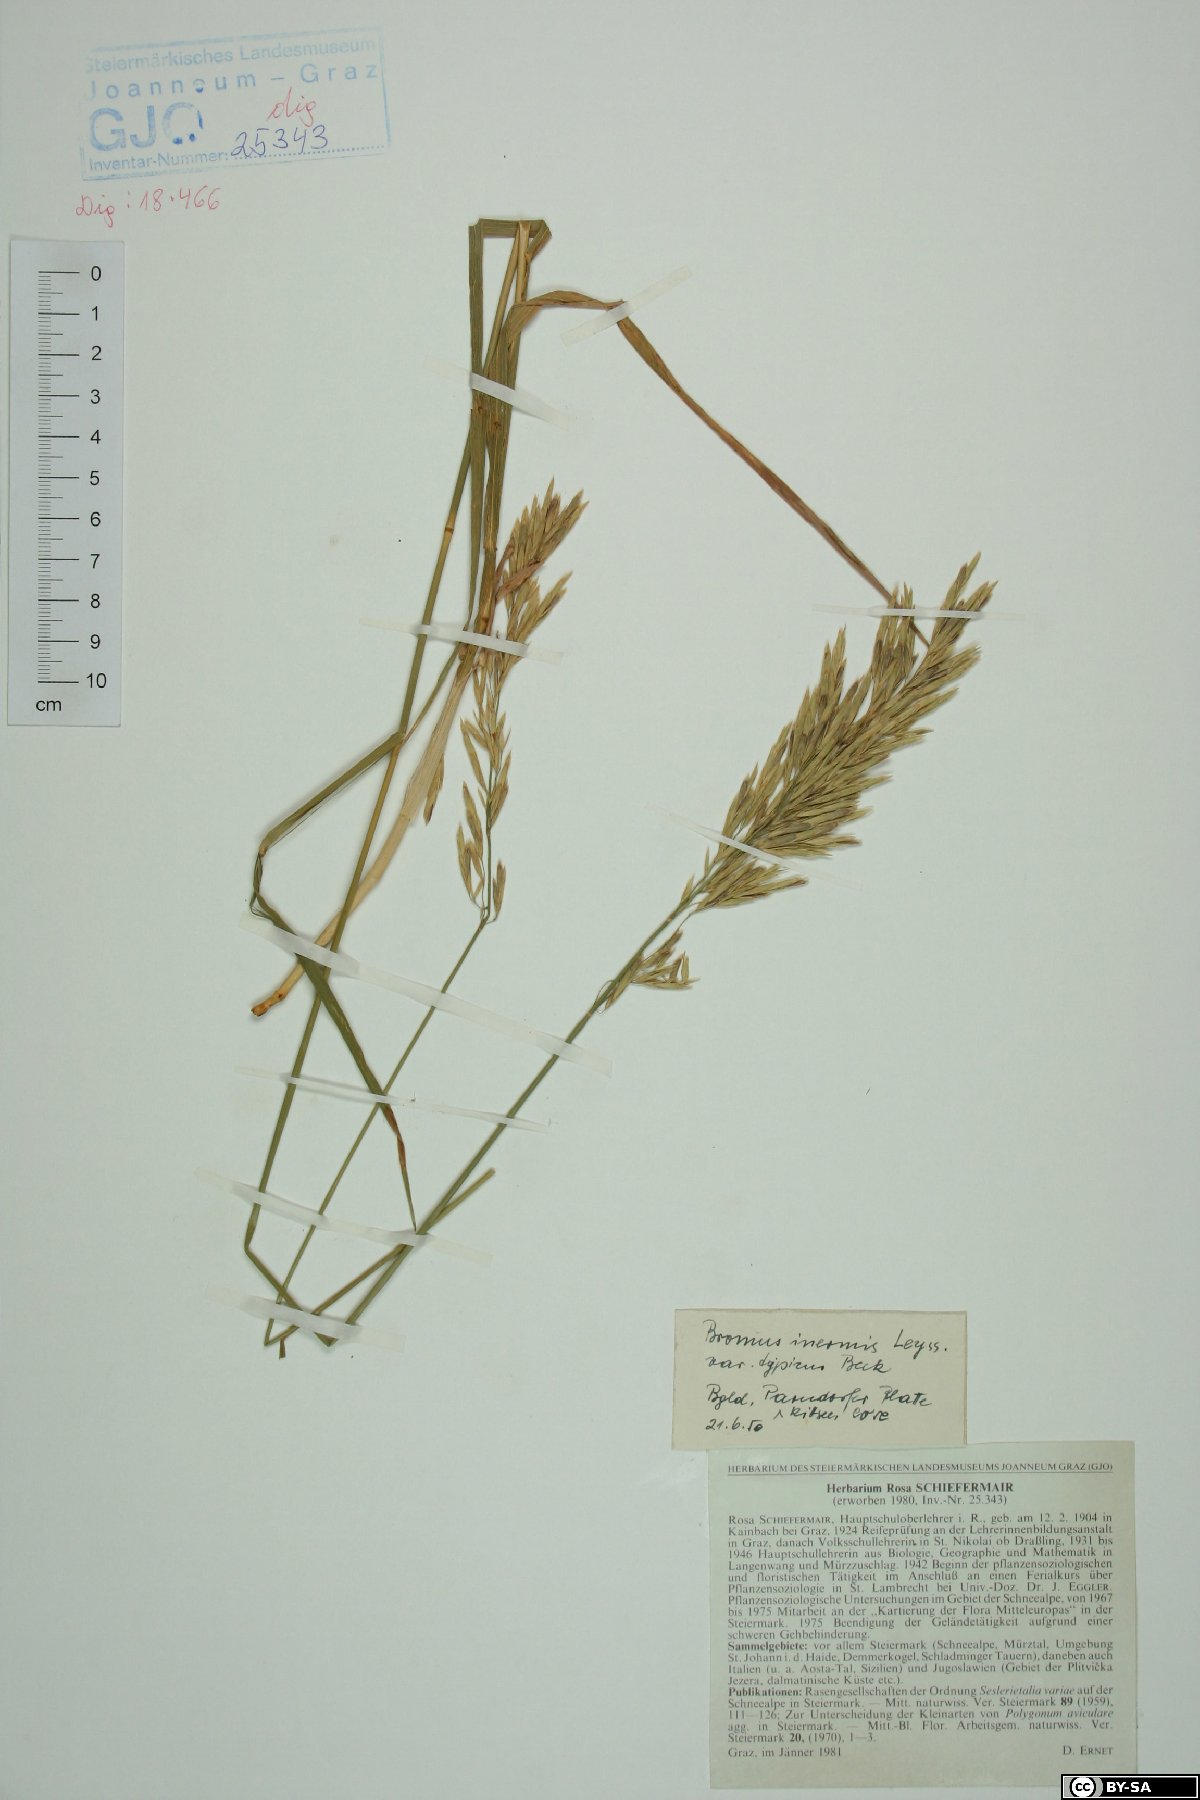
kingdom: Plantae
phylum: Tracheophyta
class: Liliopsida
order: Poales
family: Poaceae
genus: Bromus
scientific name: Bromus inermis
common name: Smooth brome
